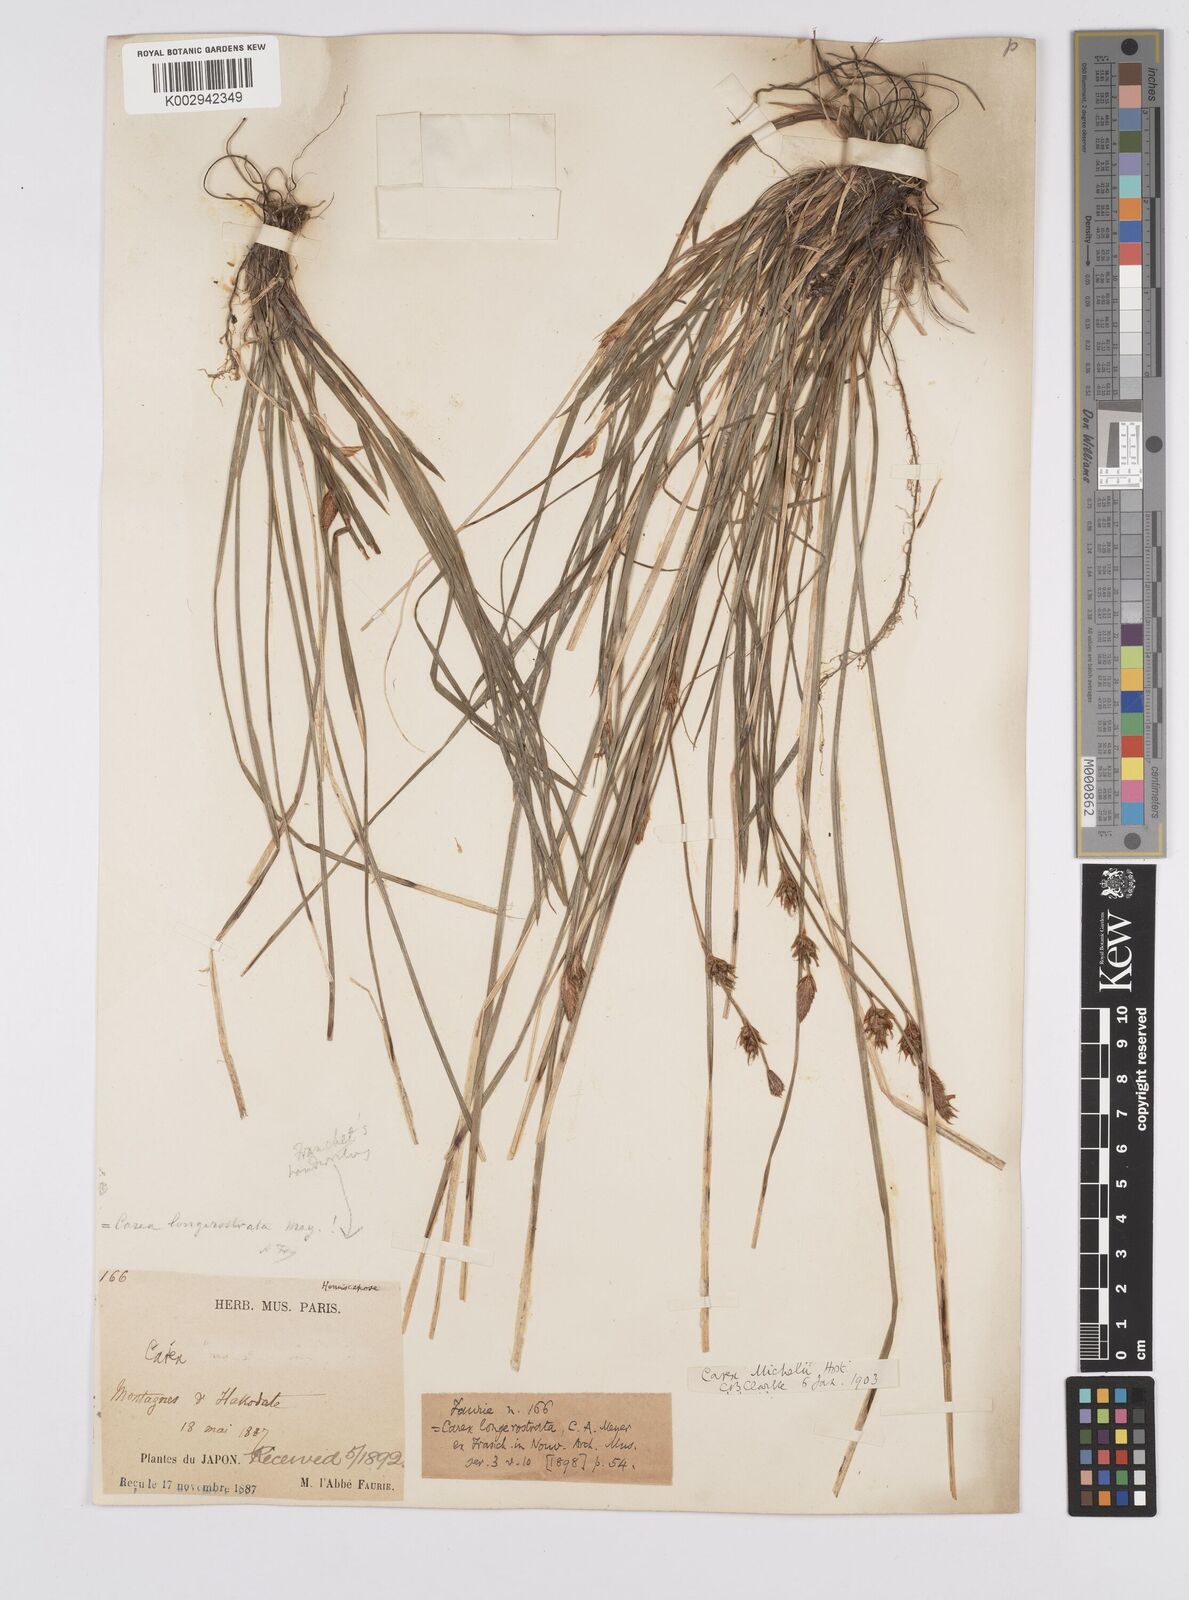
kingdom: Plantae
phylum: Tracheophyta
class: Liliopsida
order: Poales
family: Cyperaceae
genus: Carex
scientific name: Carex michelii
